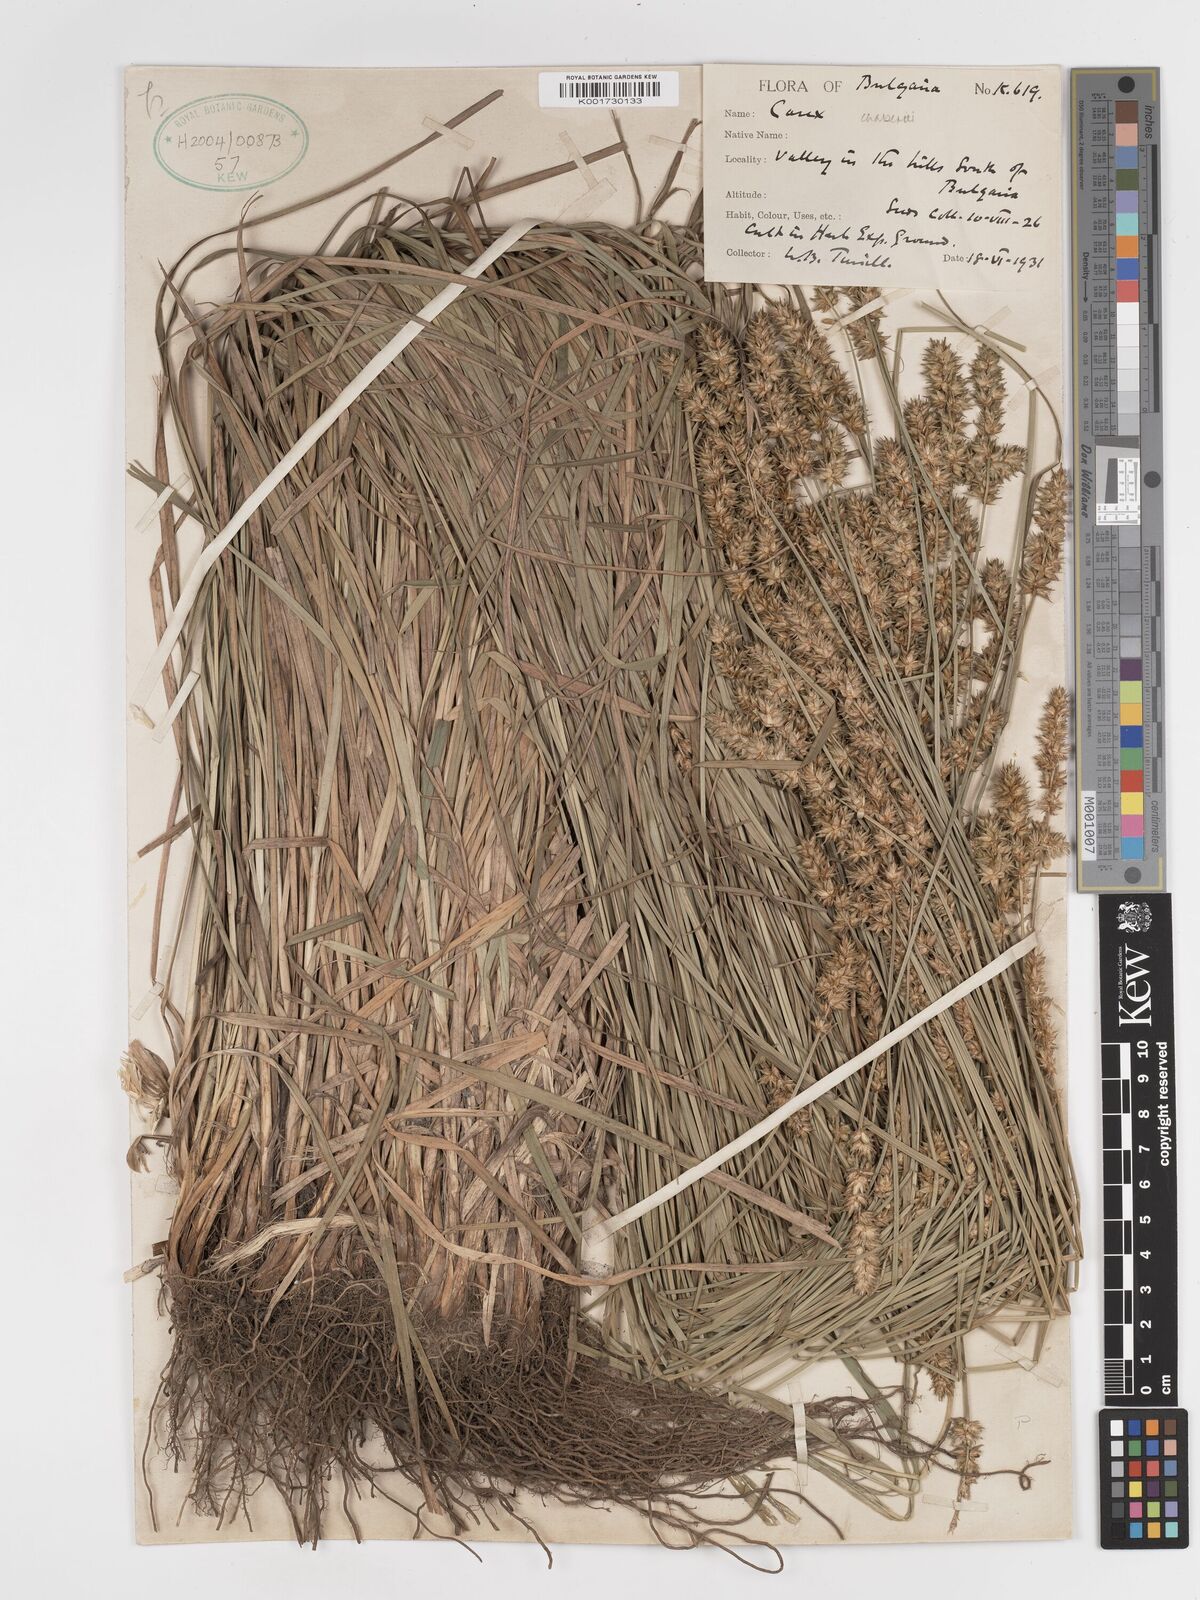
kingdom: Plantae
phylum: Tracheophyta
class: Liliopsida
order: Poales
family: Cyperaceae
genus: Carex
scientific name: Carex leersii
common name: Leers' sedge
